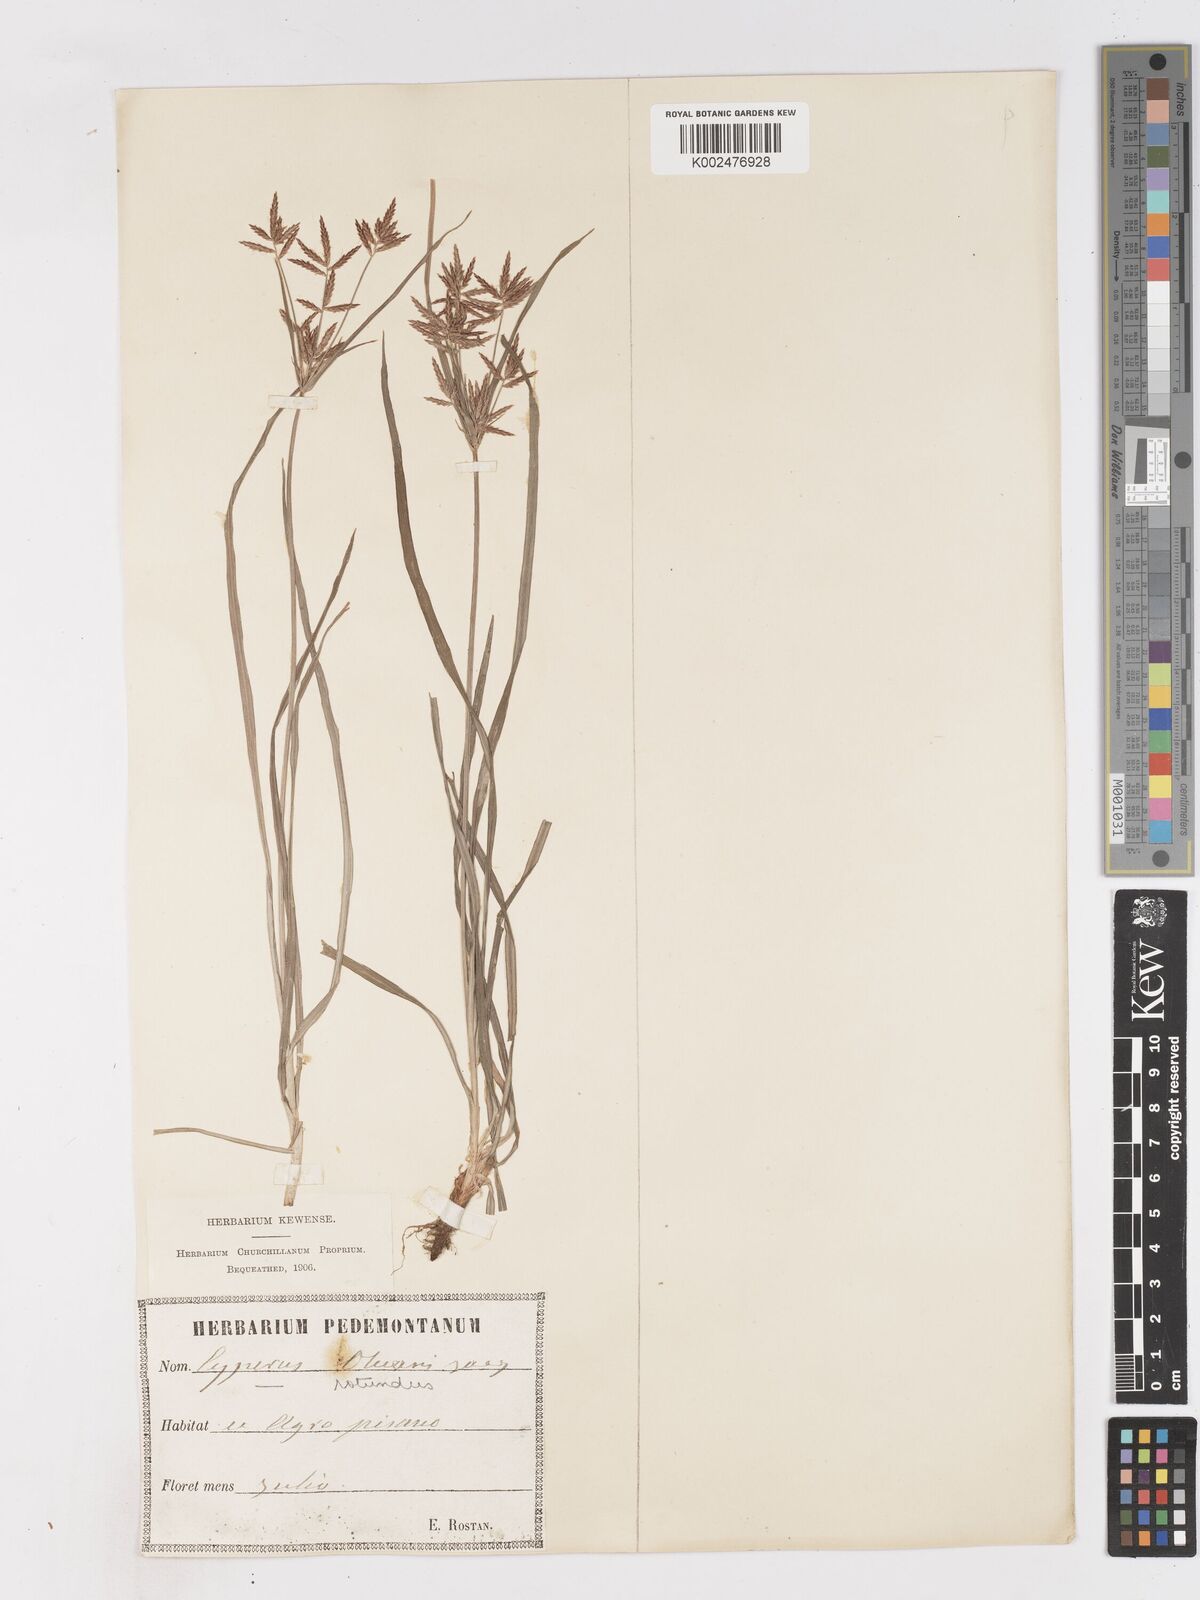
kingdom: Plantae
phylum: Tracheophyta
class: Liliopsida
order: Poales
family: Cyperaceae
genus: Cyperus
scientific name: Cyperus rotundus
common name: Nutgrass
